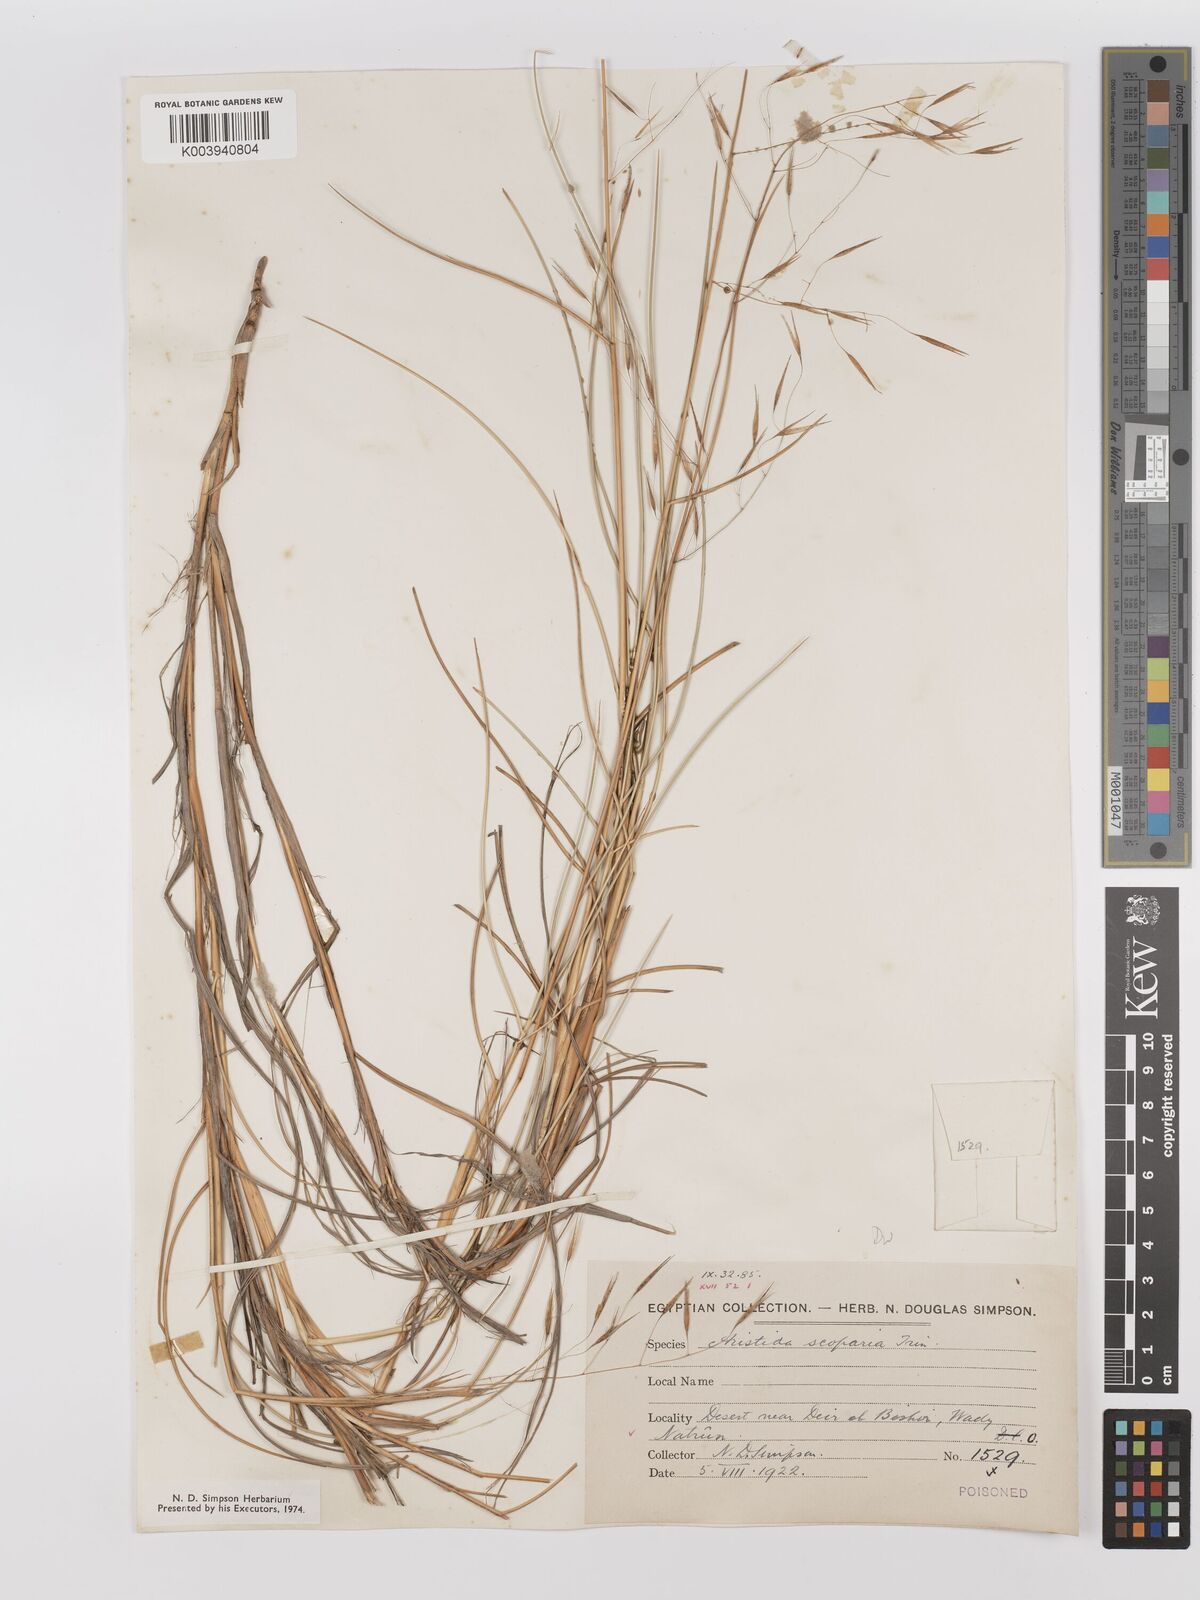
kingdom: Plantae
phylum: Tracheophyta
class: Liliopsida
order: Poales
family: Poaceae
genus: Stipagrostis
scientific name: Stipagrostis scoparia
